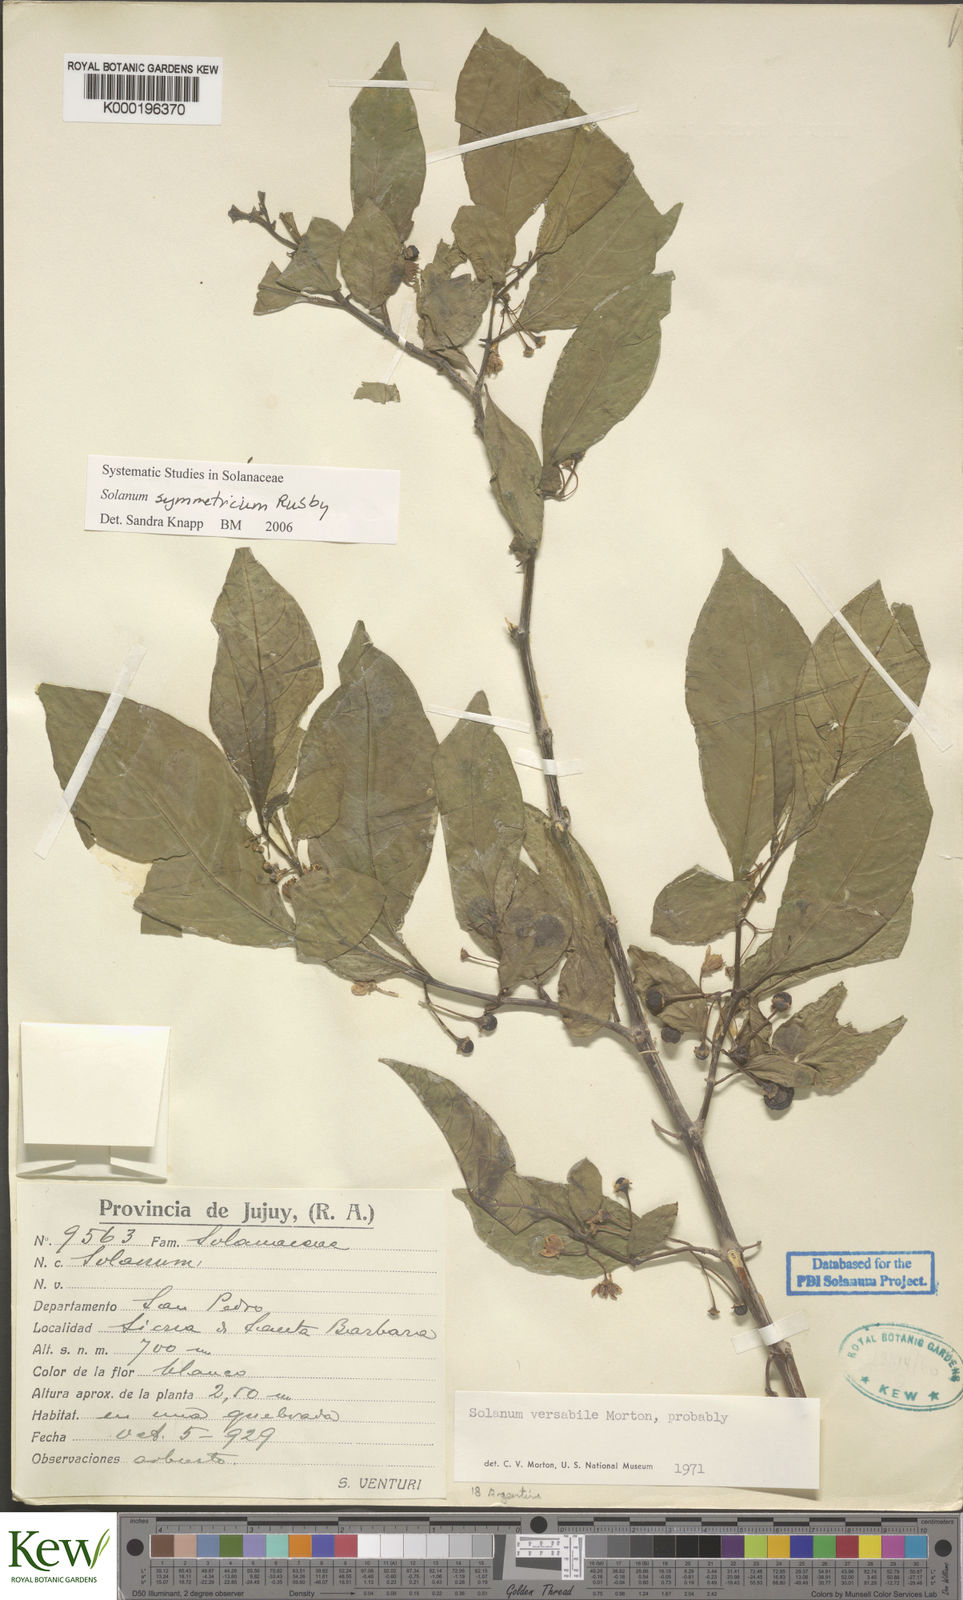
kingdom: Plantae
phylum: Tracheophyta
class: Magnoliopsida
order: Solanales
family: Solanaceae
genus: Solanum
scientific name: Solanum symmetricum
